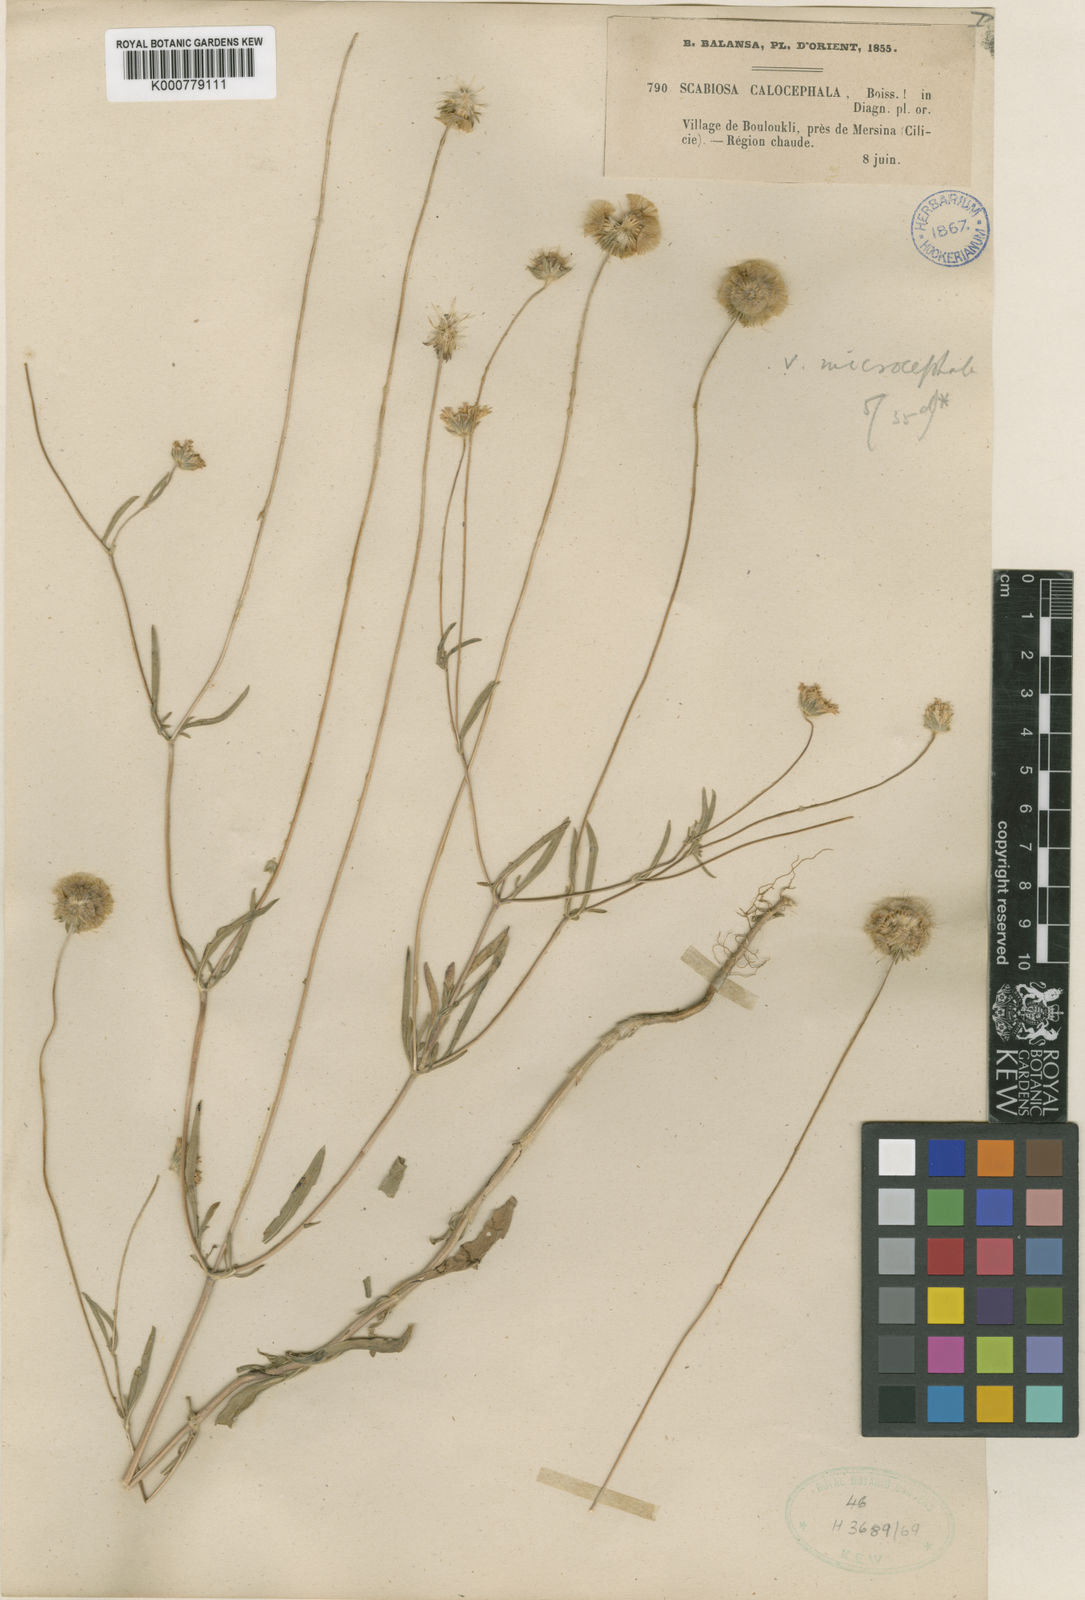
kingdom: Plantae
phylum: Tracheophyta
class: Magnoliopsida
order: Dipsacales
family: Caprifoliaceae
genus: Lomelosia
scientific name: Lomelosia palaestina
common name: Balkan pincushions
